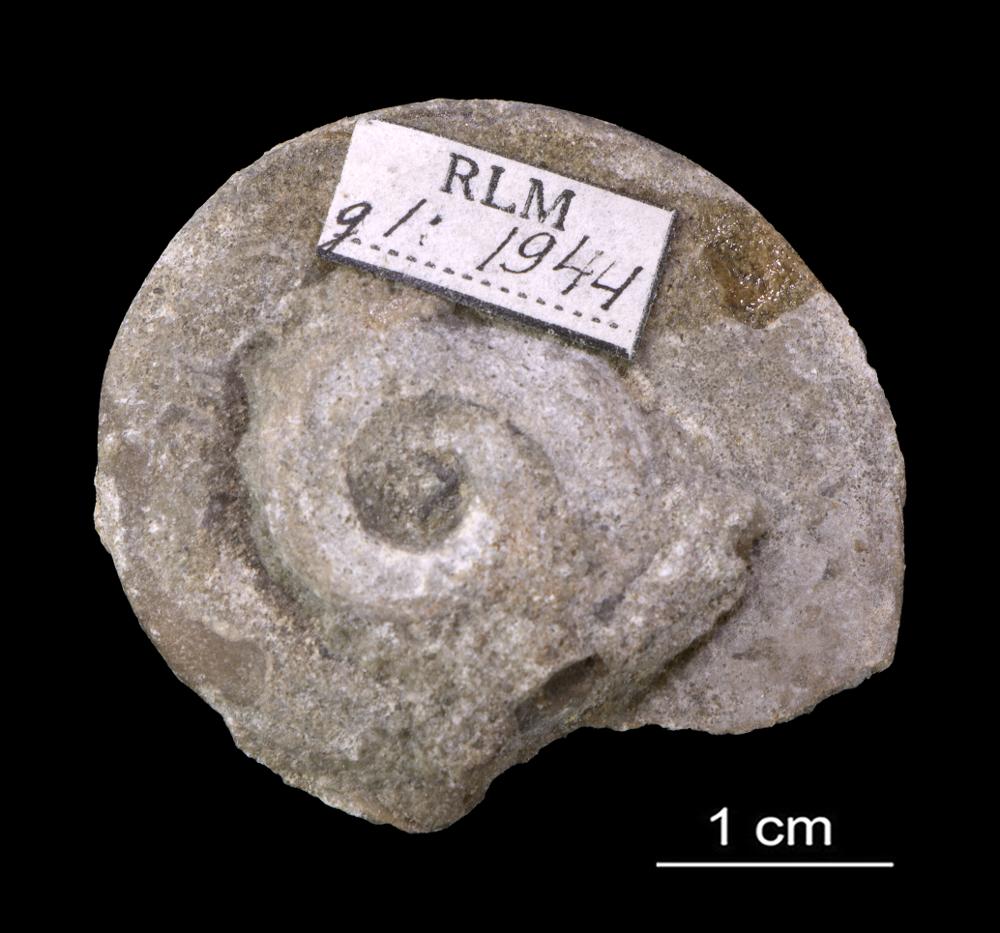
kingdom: Animalia
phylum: Mollusca
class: Gastropoda
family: Lesueurillidae
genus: Pararaphistoma
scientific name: Pararaphistoma Helicites qualteriata
